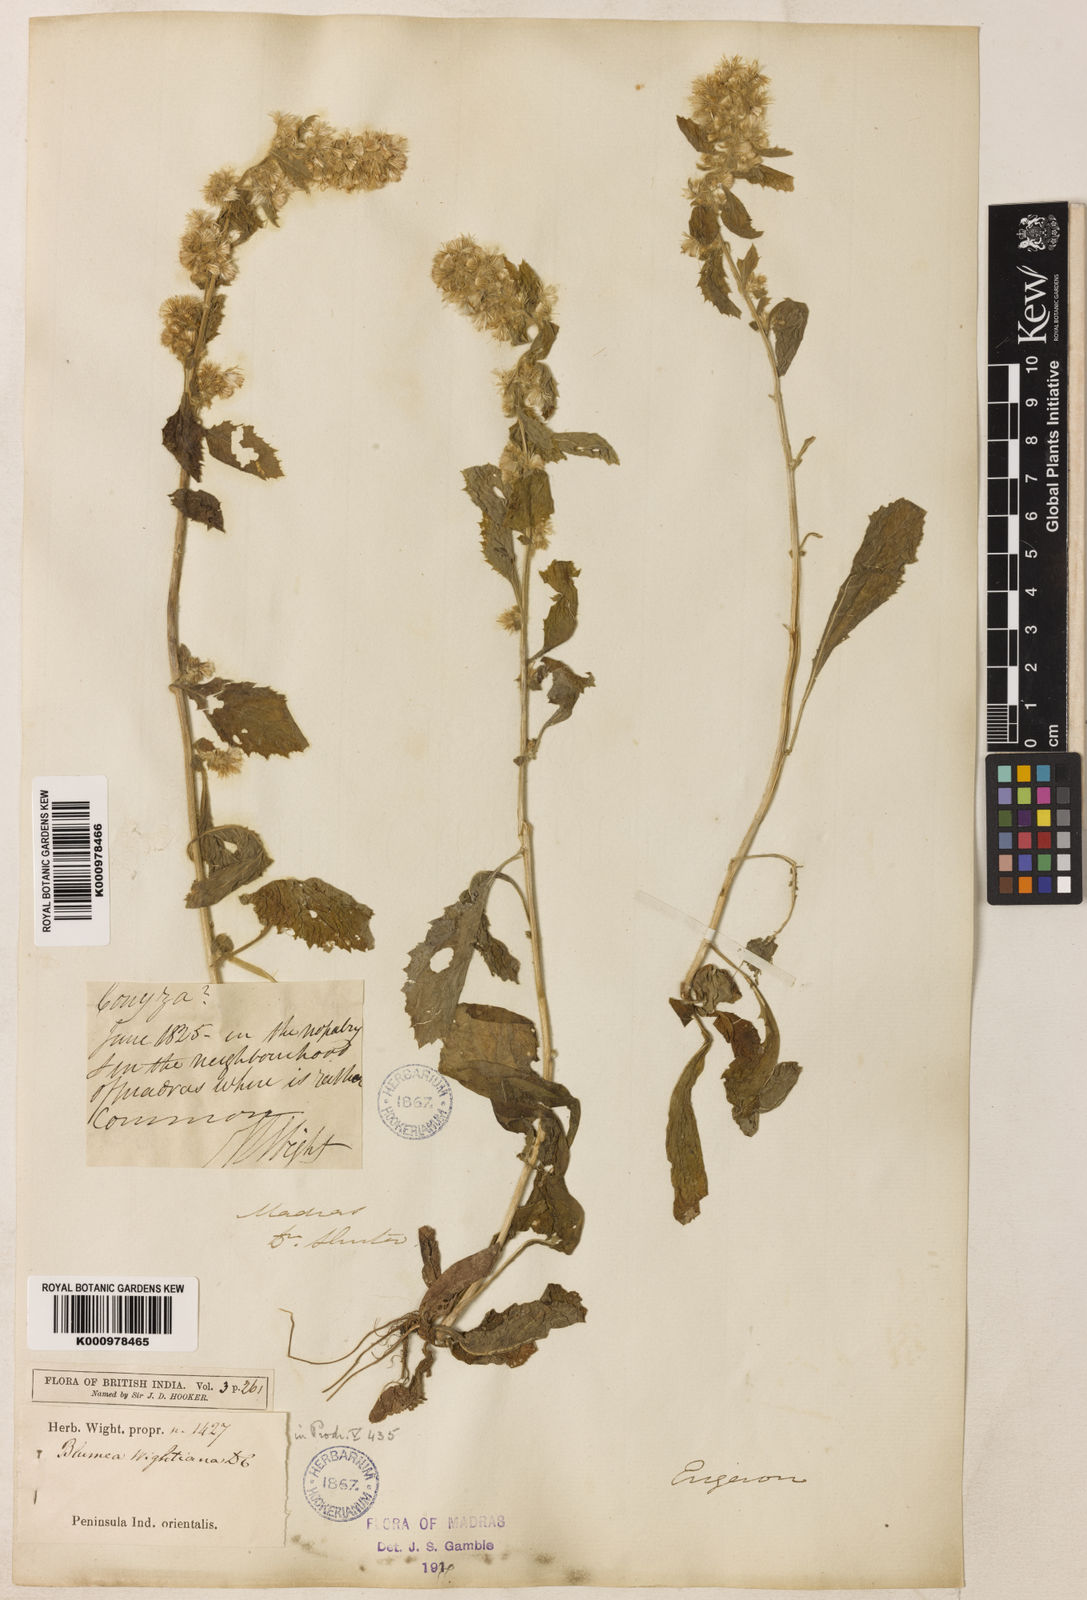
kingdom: Plantae
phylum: Tracheophyta
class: Magnoliopsida
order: Asterales
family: Asteraceae
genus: Blumea
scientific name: Blumea axillaris
